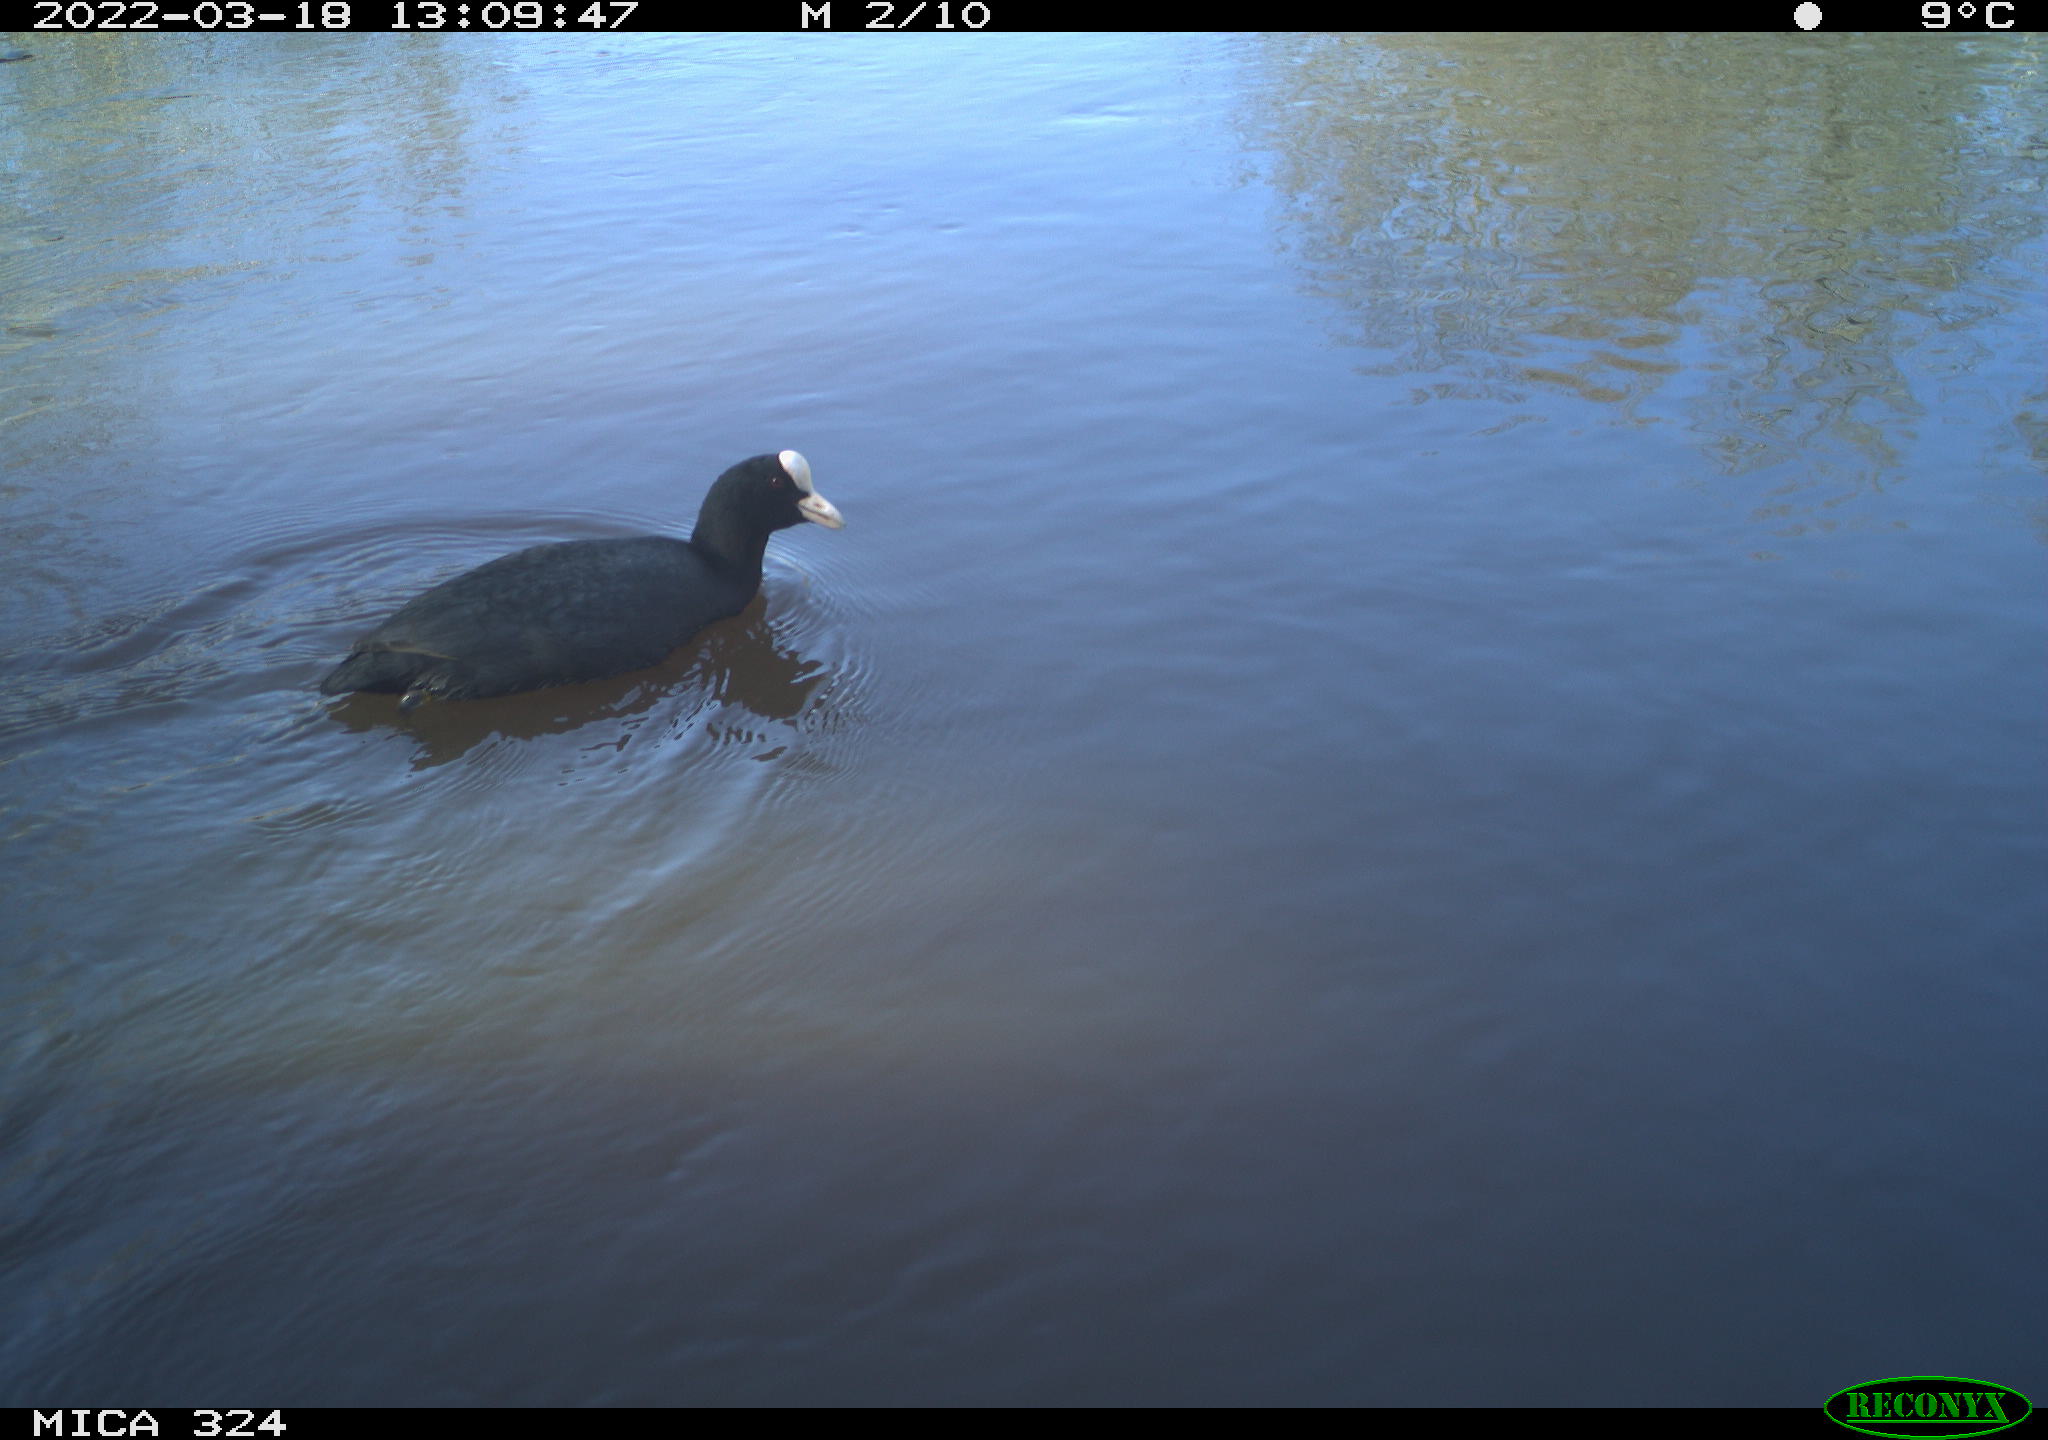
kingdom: Animalia
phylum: Chordata
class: Aves
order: Gruiformes
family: Rallidae
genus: Fulica
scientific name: Fulica atra
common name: Eurasian coot
